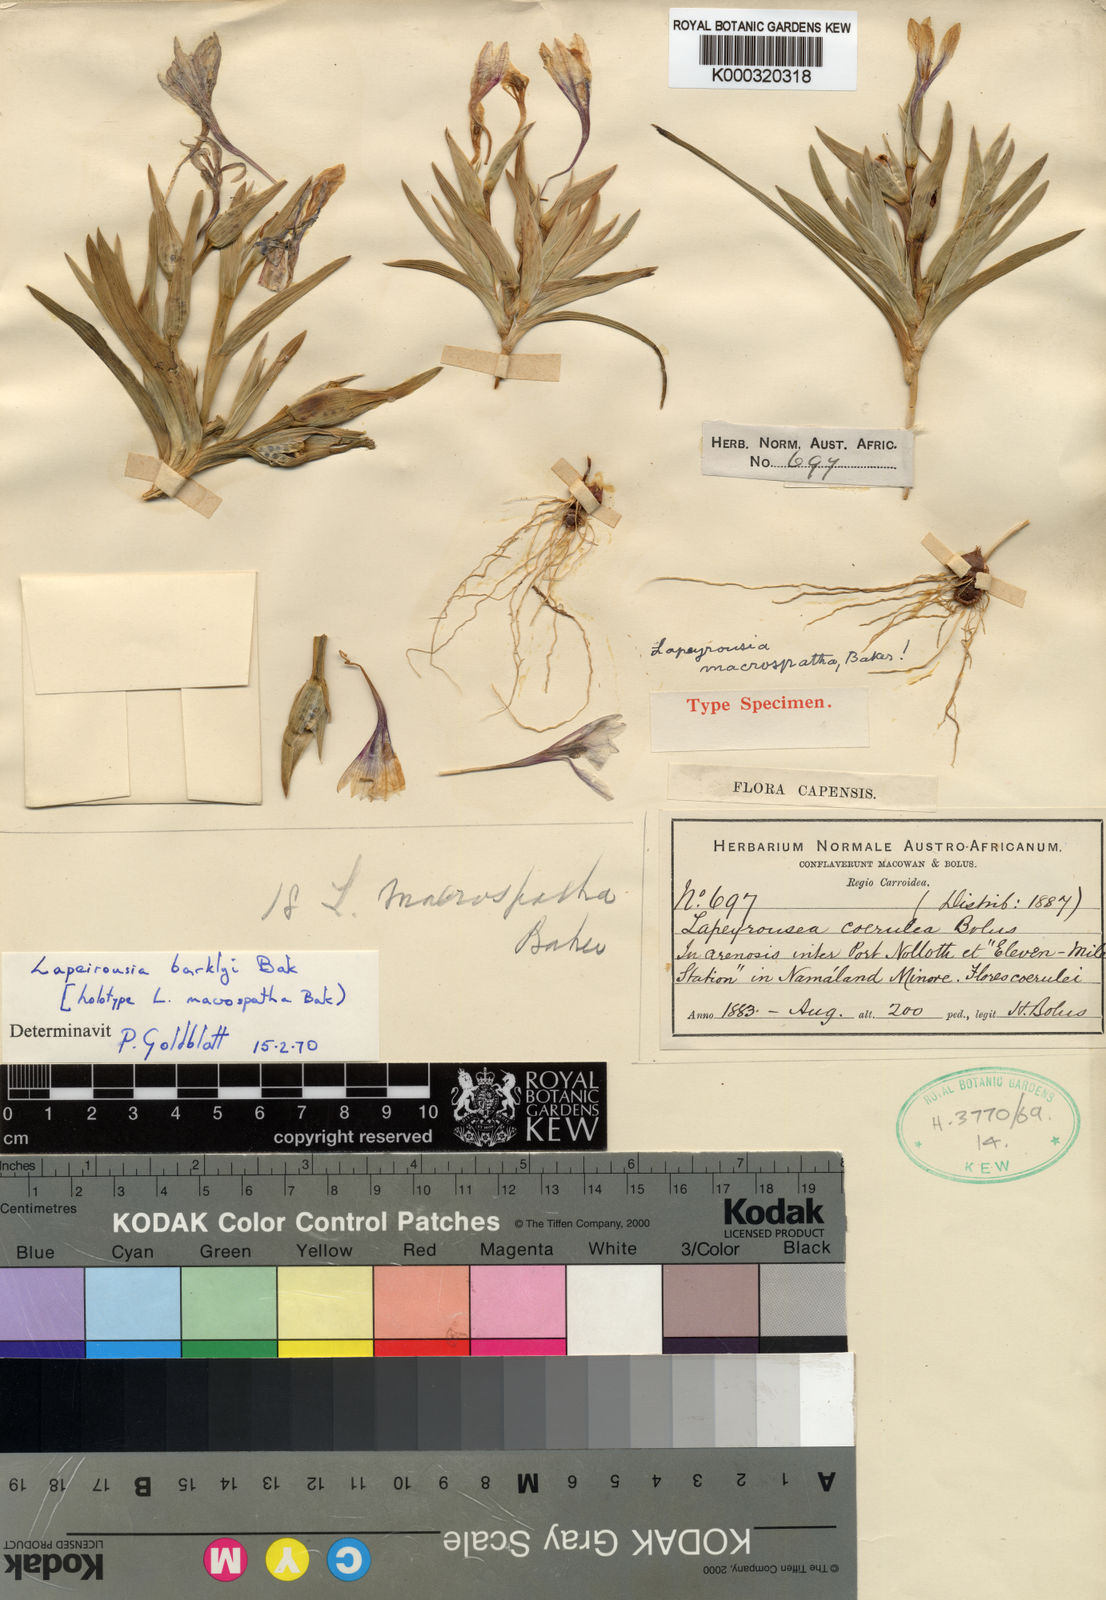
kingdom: Plantae
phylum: Tracheophyta
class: Liliopsida
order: Asparagales
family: Iridaceae
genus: Lapeirousia
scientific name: Lapeirousia macrospatha
